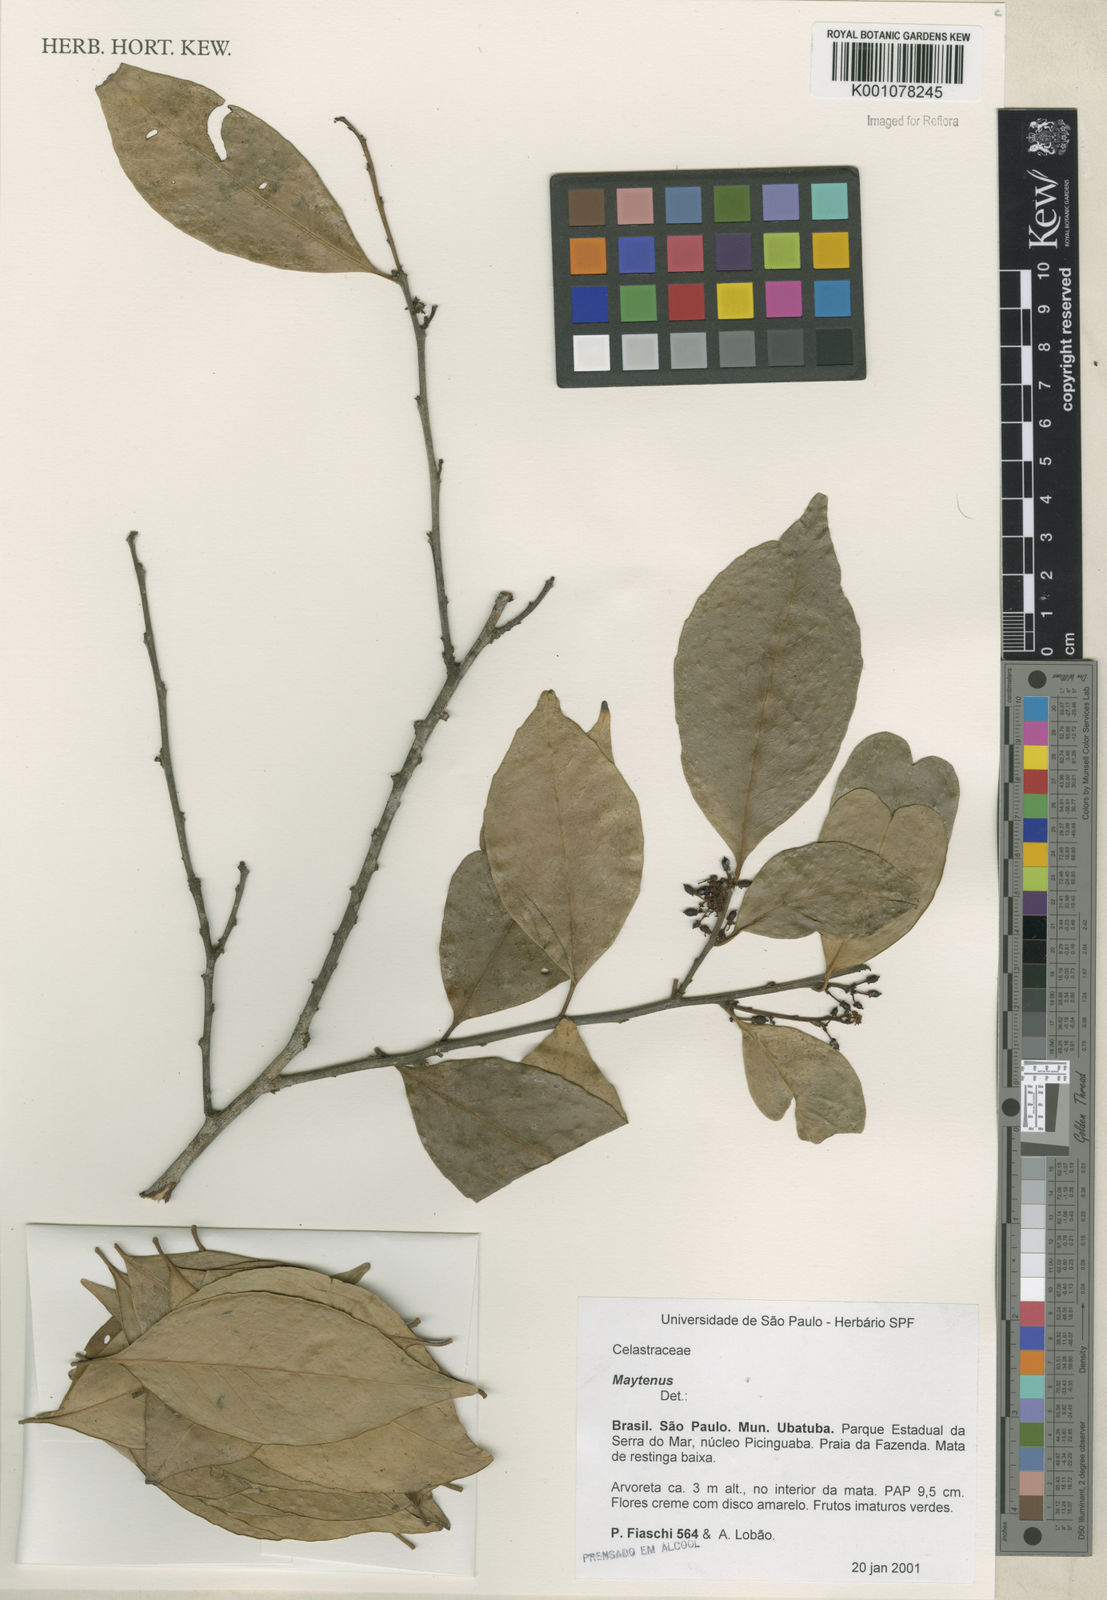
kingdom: Plantae
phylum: Tracheophyta
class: Magnoliopsida
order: Celastrales
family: Celastraceae
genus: Maytenus
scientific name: Maytenus
